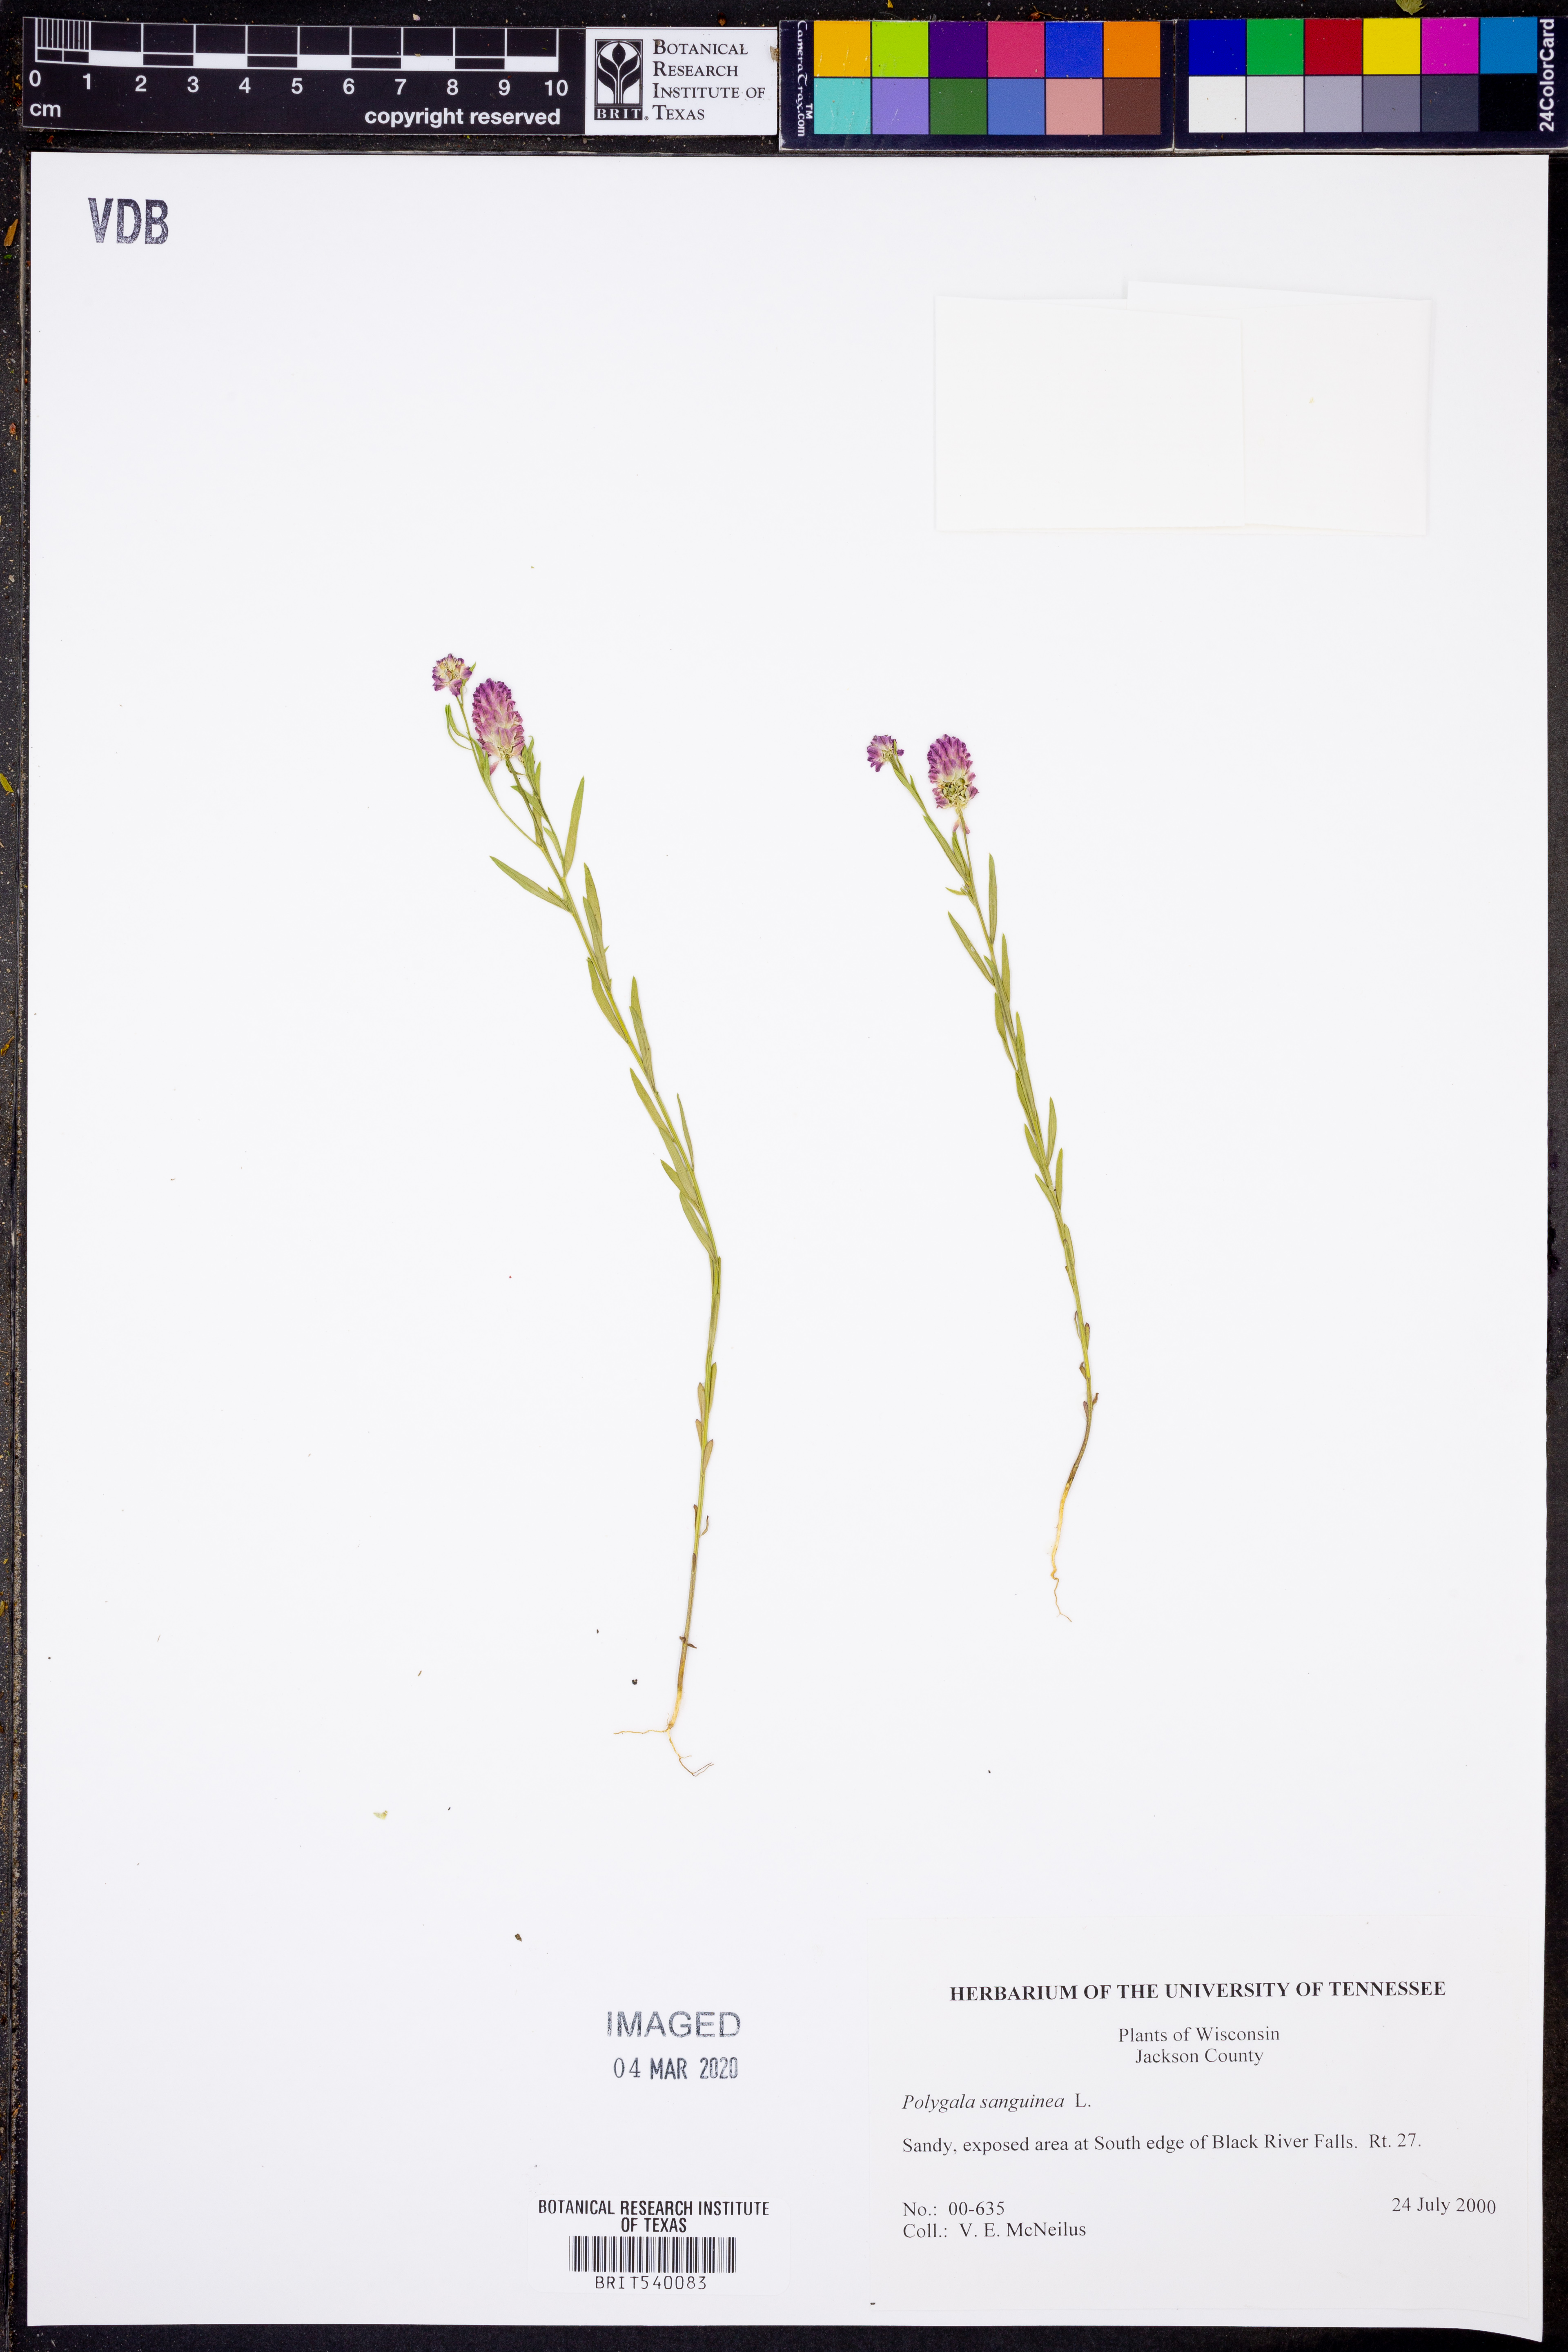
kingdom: Plantae
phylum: Tracheophyta
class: Magnoliopsida
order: Fabales
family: Polygalaceae
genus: Polygala
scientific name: Polygala sanguinea
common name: Blood milkwort
